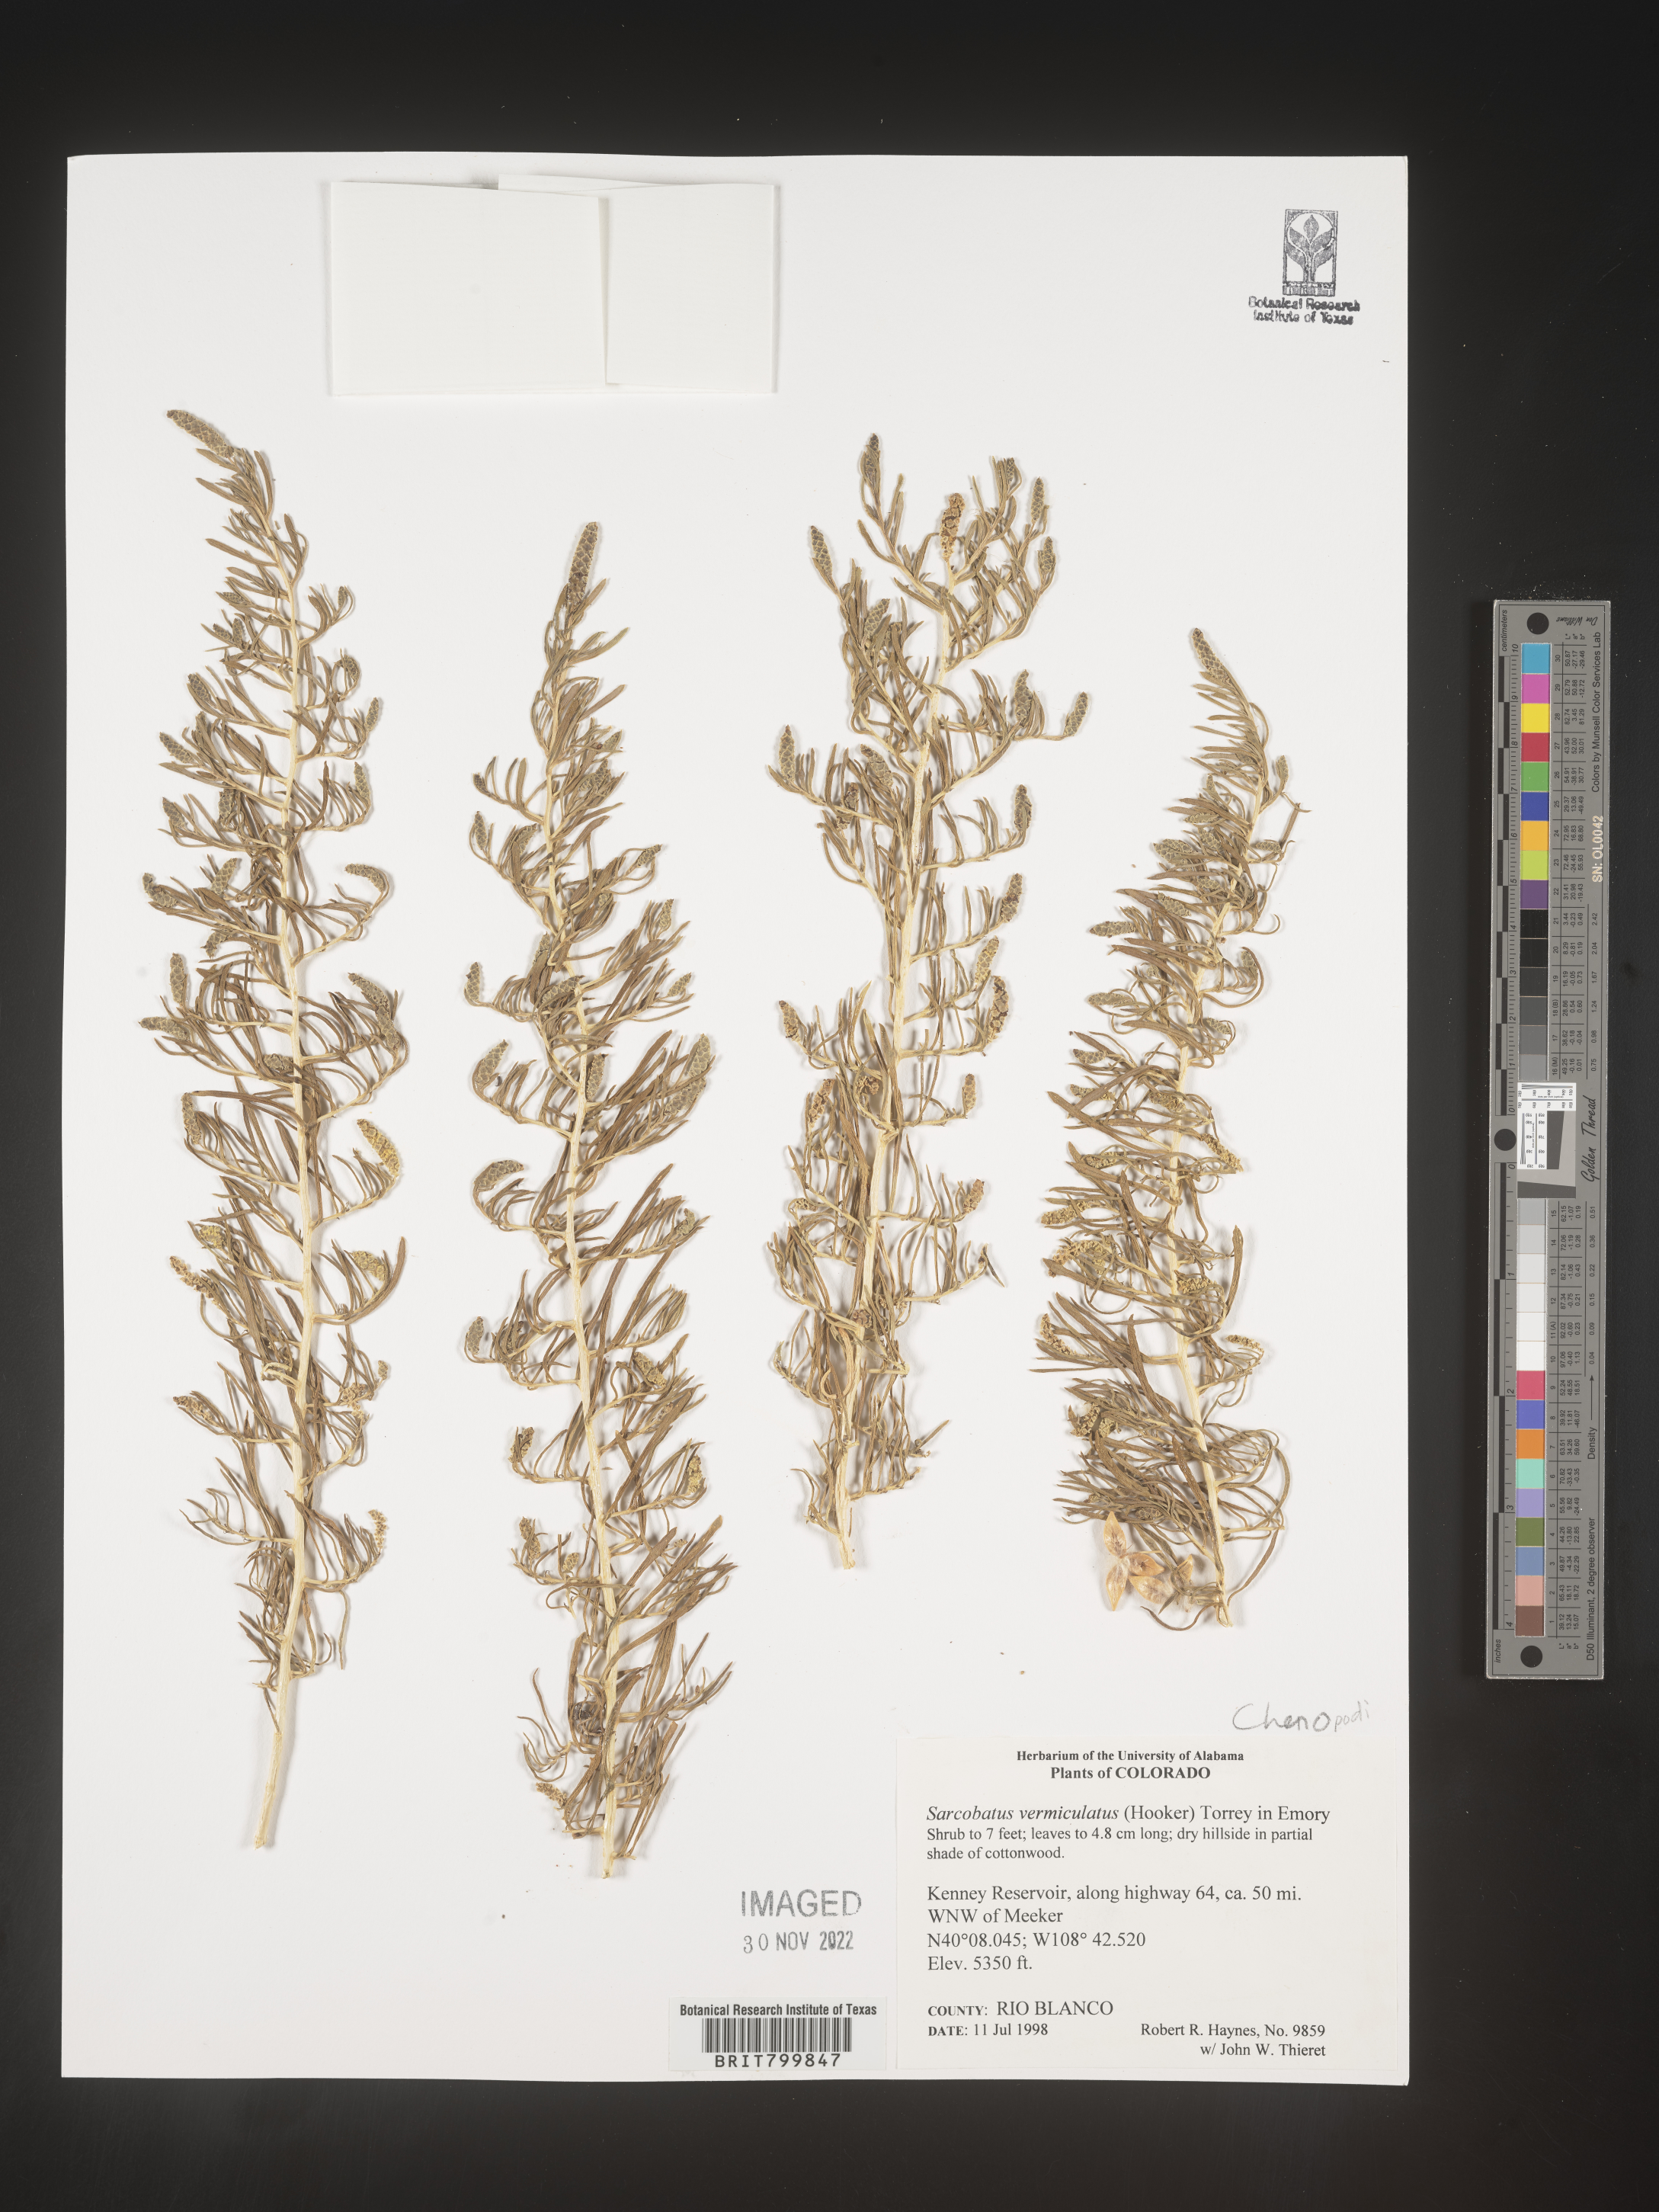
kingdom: Plantae
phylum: Tracheophyta
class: Magnoliopsida
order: Caryophyllales
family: Sarcobataceae
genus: Sarcobatus
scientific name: Sarcobatus vermiculatus
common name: Greasewood
